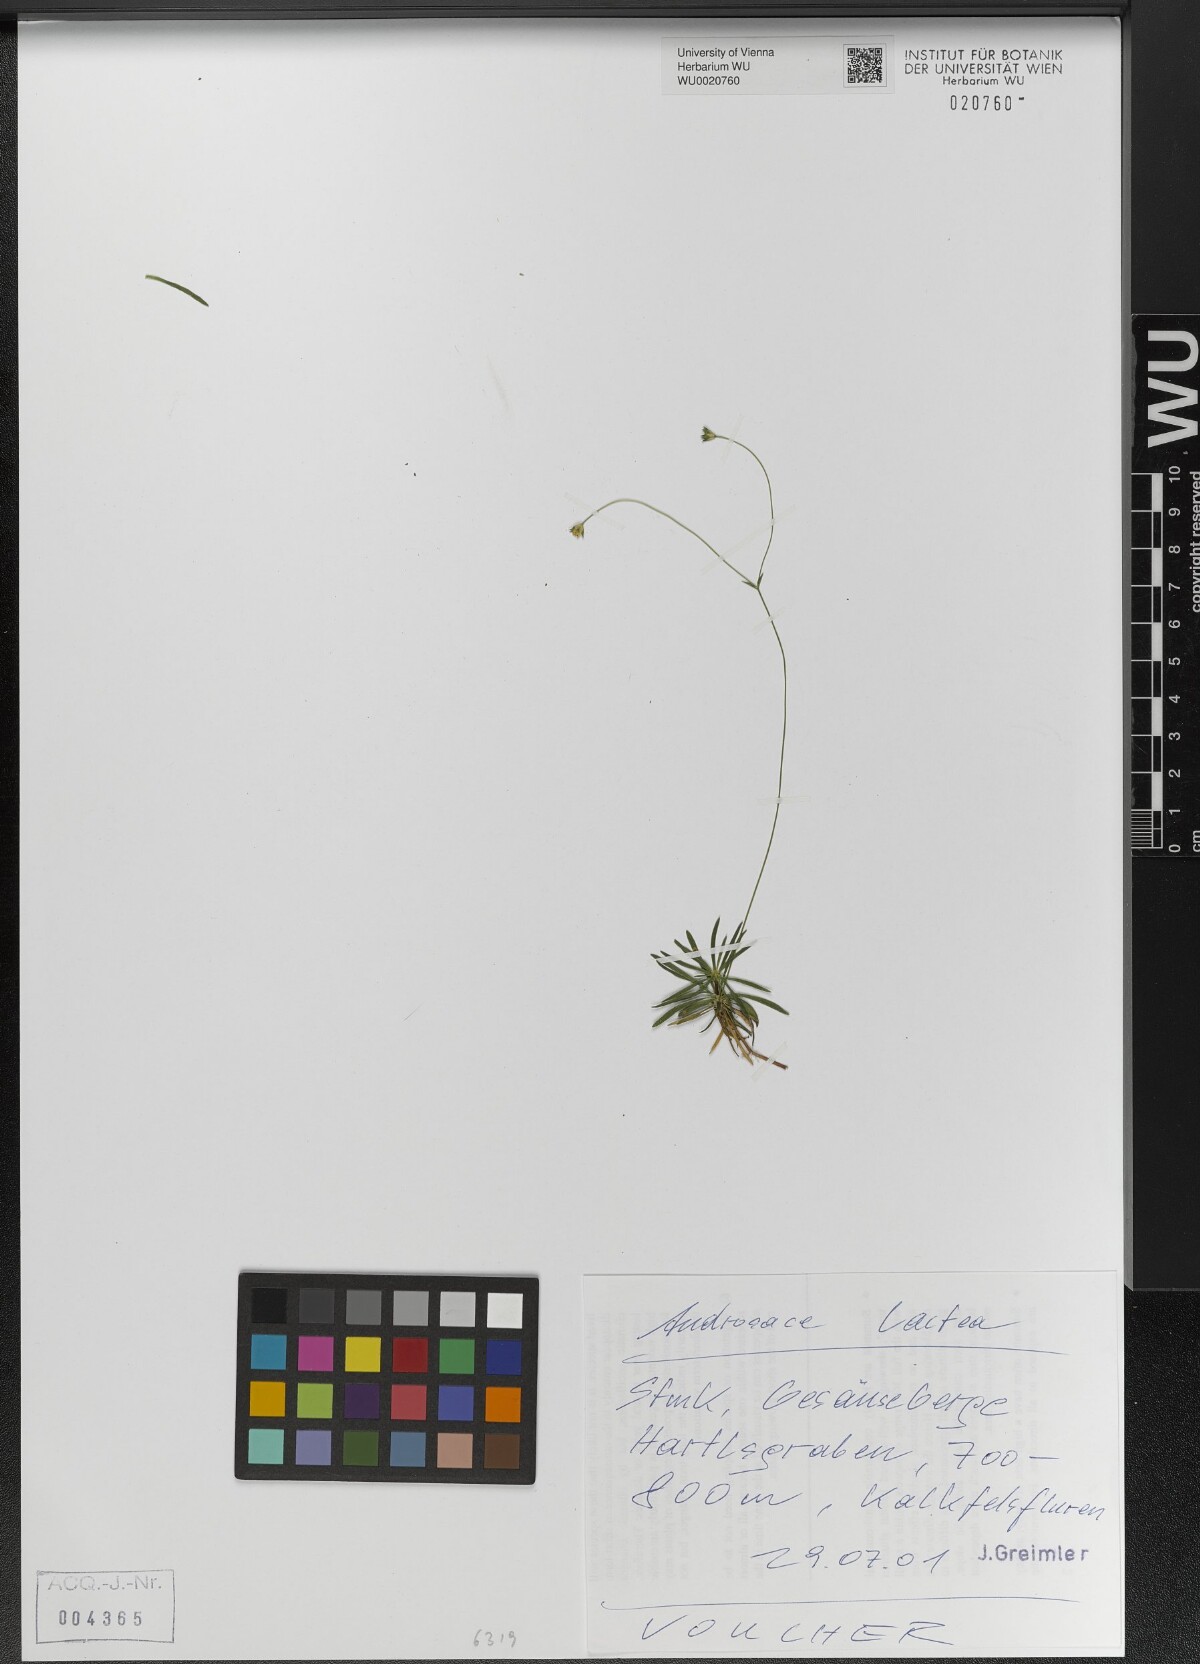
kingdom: Plantae
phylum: Tracheophyta
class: Magnoliopsida
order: Ericales
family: Primulaceae
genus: Androsace
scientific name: Androsace lactea
